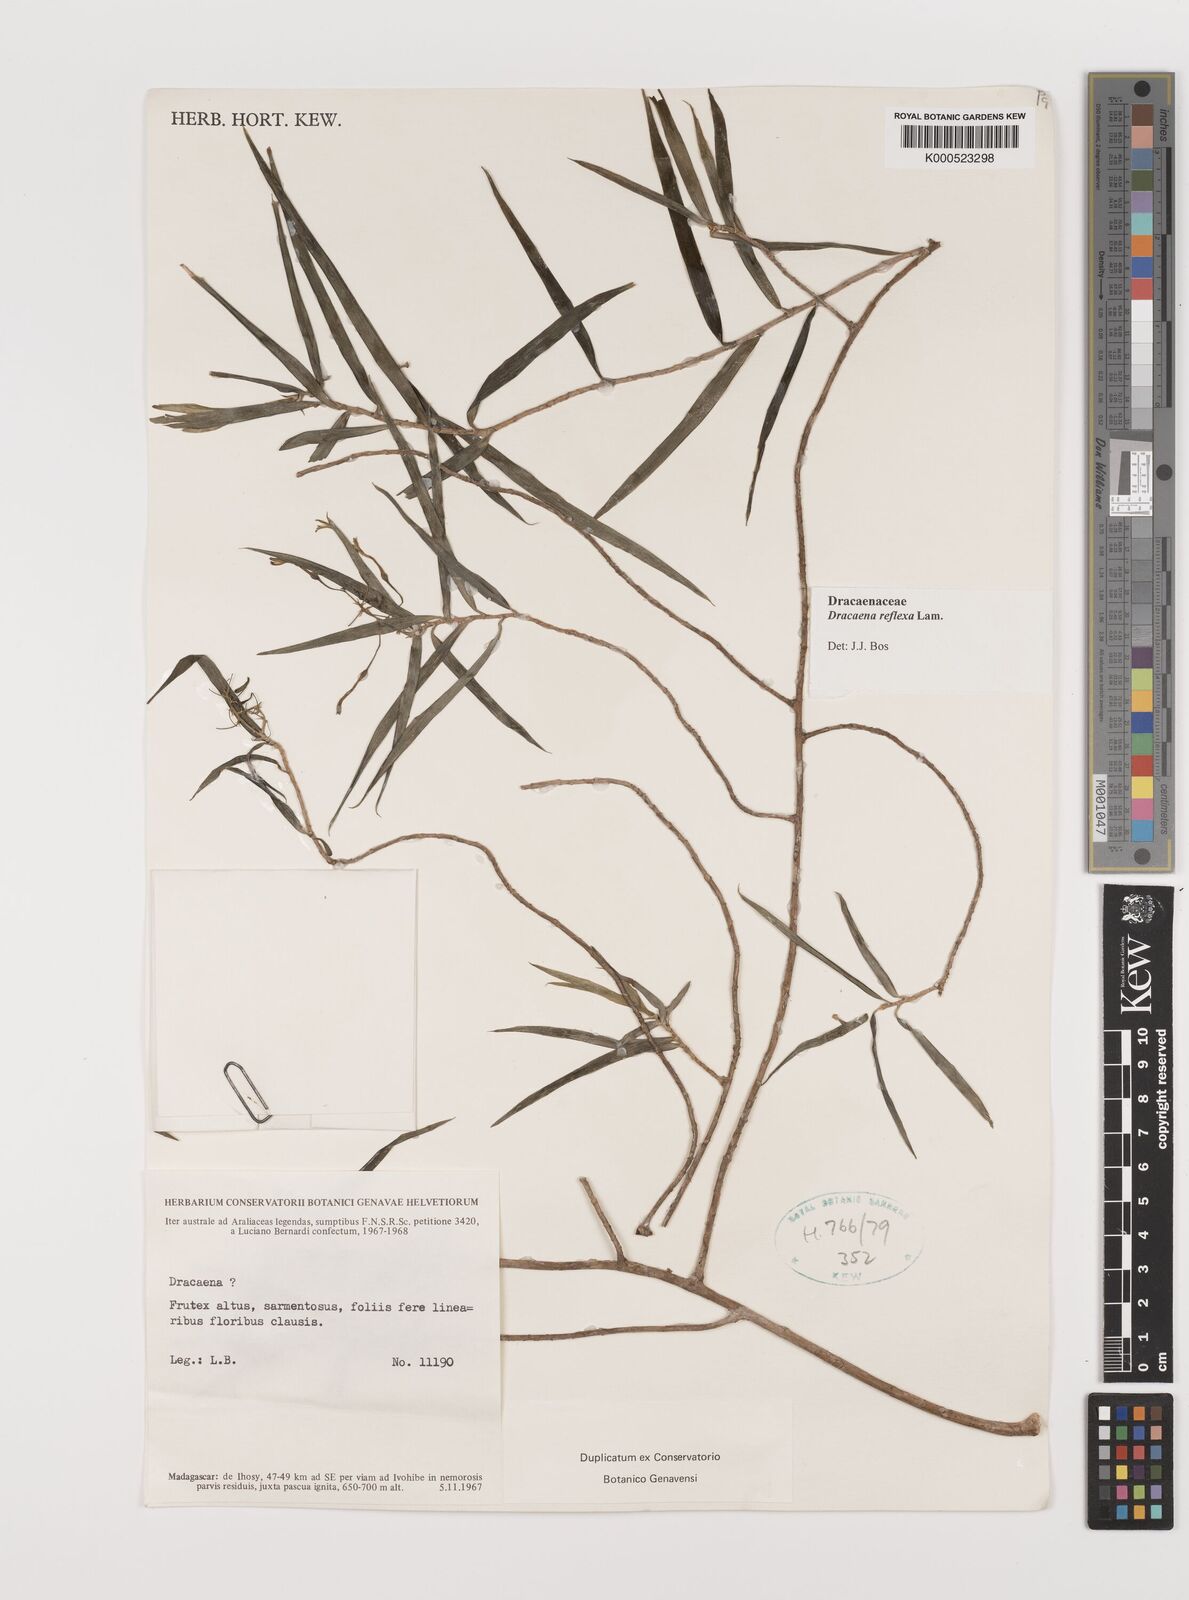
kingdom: Plantae
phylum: Tracheophyta
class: Liliopsida
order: Asparagales
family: Asparagaceae
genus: Dracaena
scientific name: Dracaena reflexa
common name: Song-of-india
